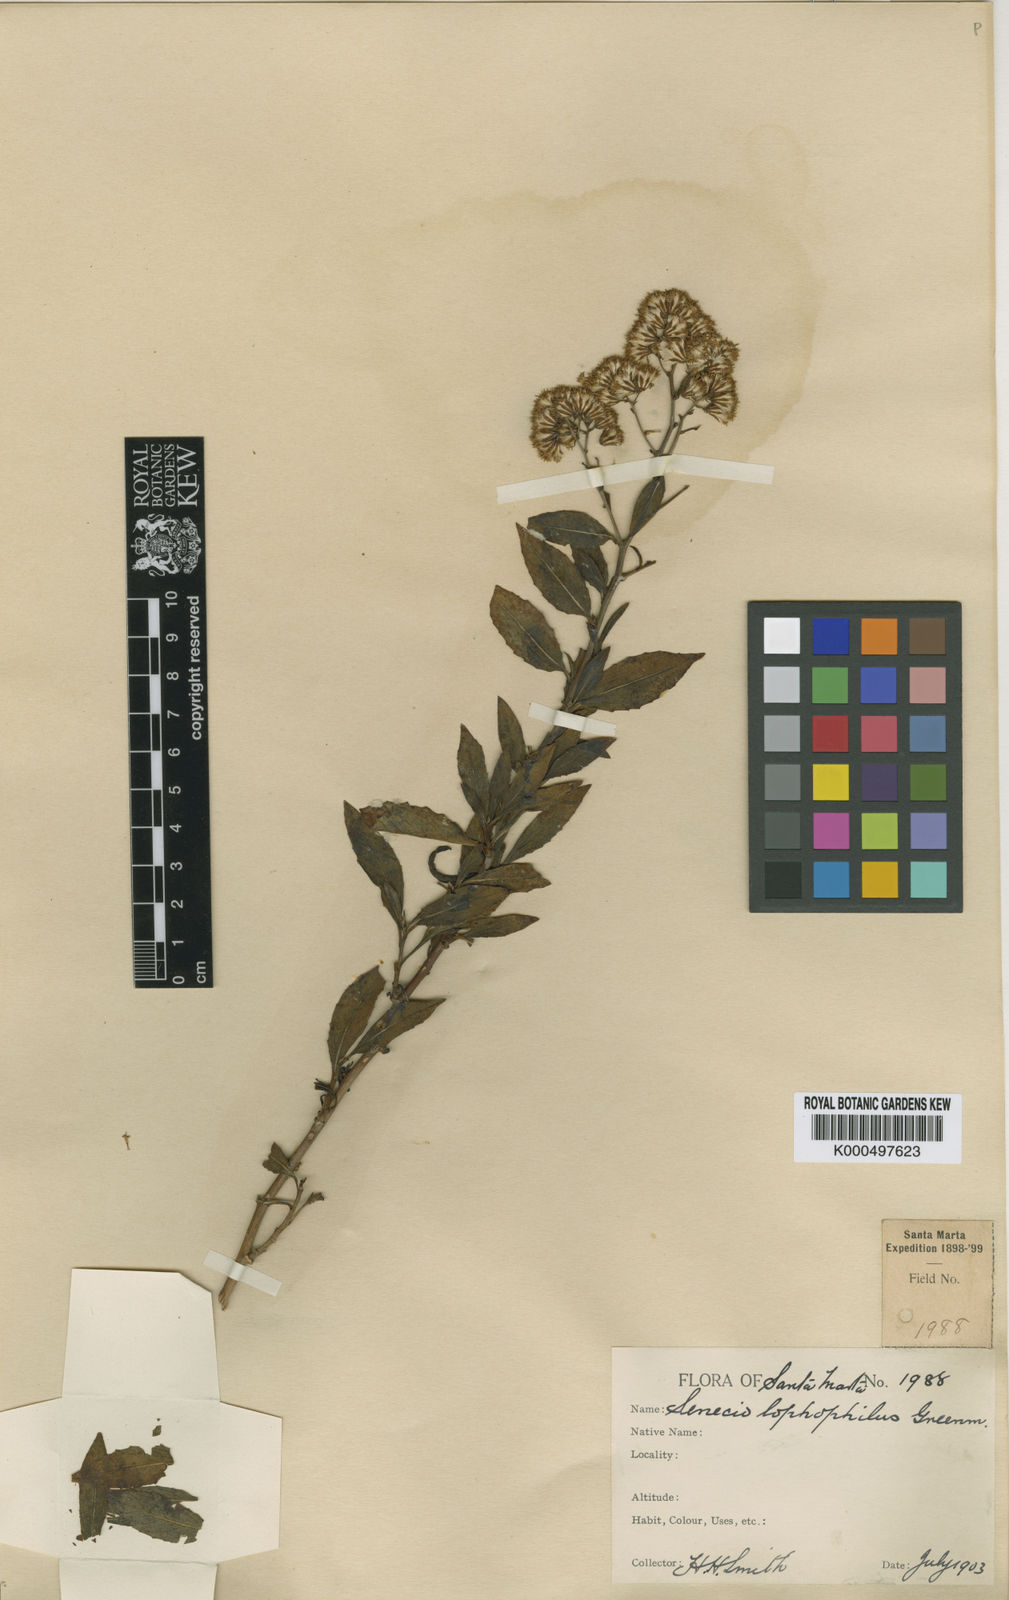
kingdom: Plantae
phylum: Tracheophyta
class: Magnoliopsida
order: Asterales
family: Asteraceae
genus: Pentacalia
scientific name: Pentacalia lophophilus
